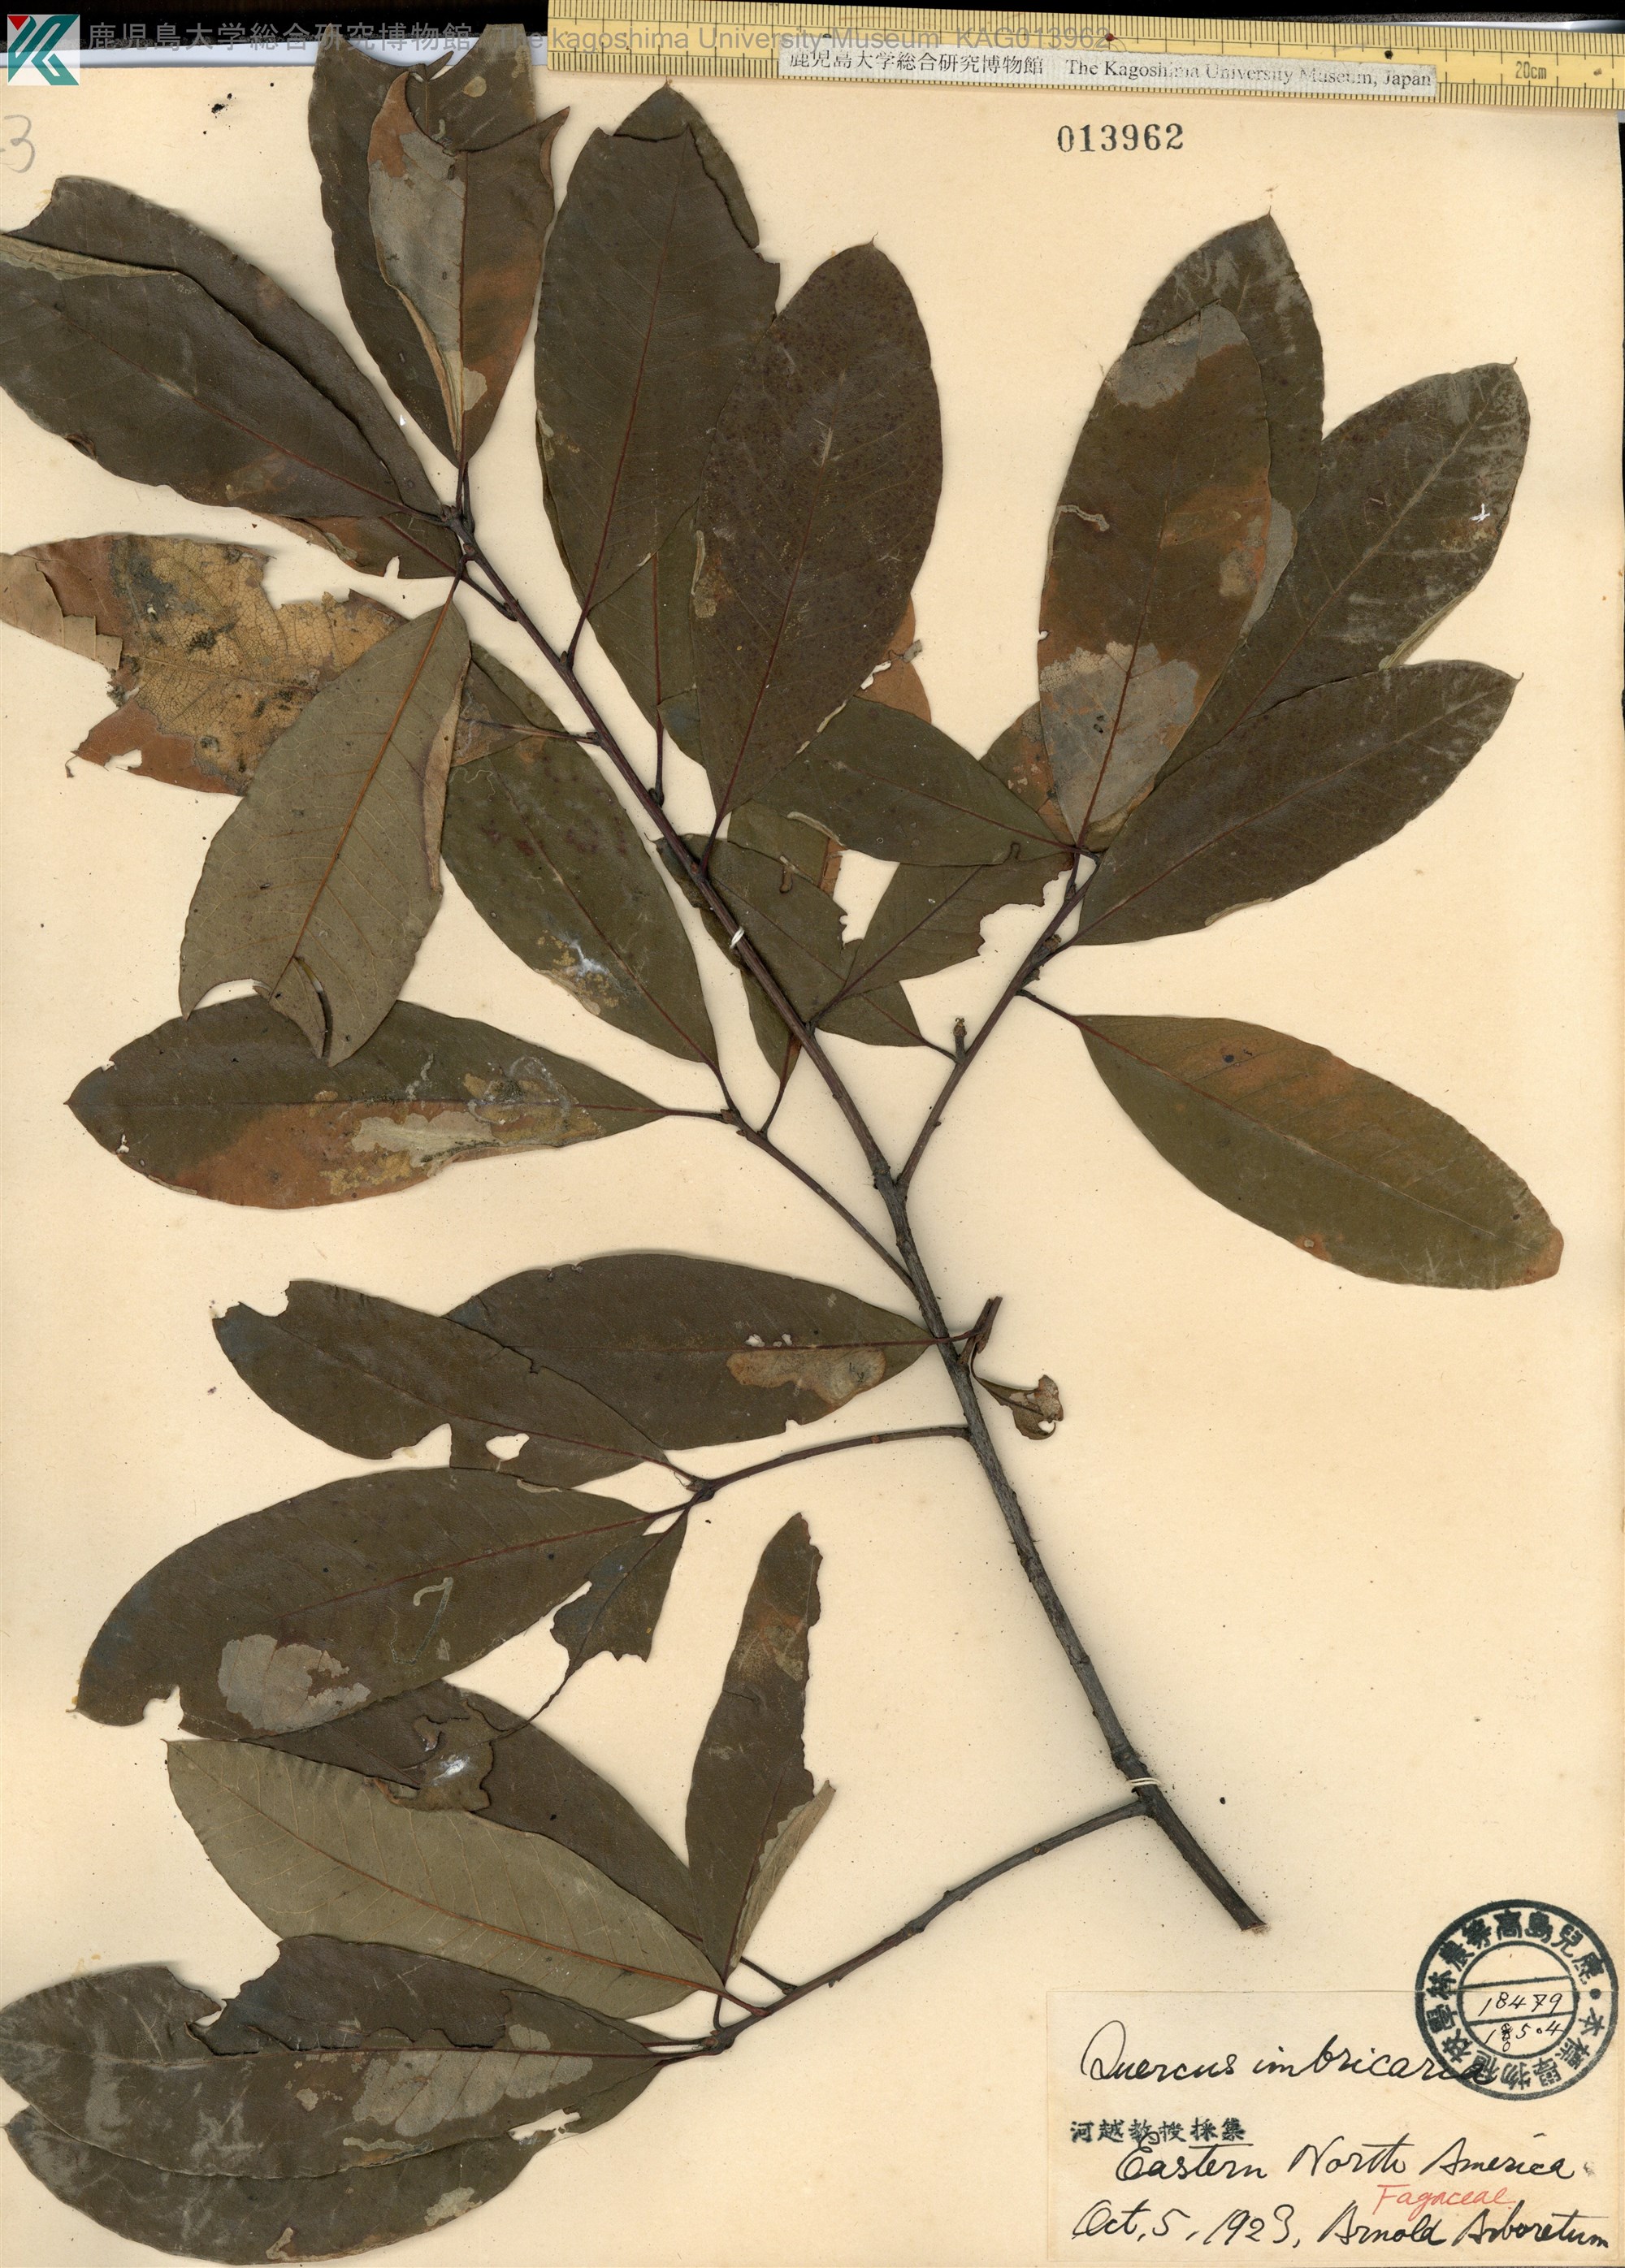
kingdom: Plantae
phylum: Tracheophyta
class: Magnoliopsida
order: Fagales
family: Fagaceae
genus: Quercus
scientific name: Quercus imbricaria
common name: Shingle oak
